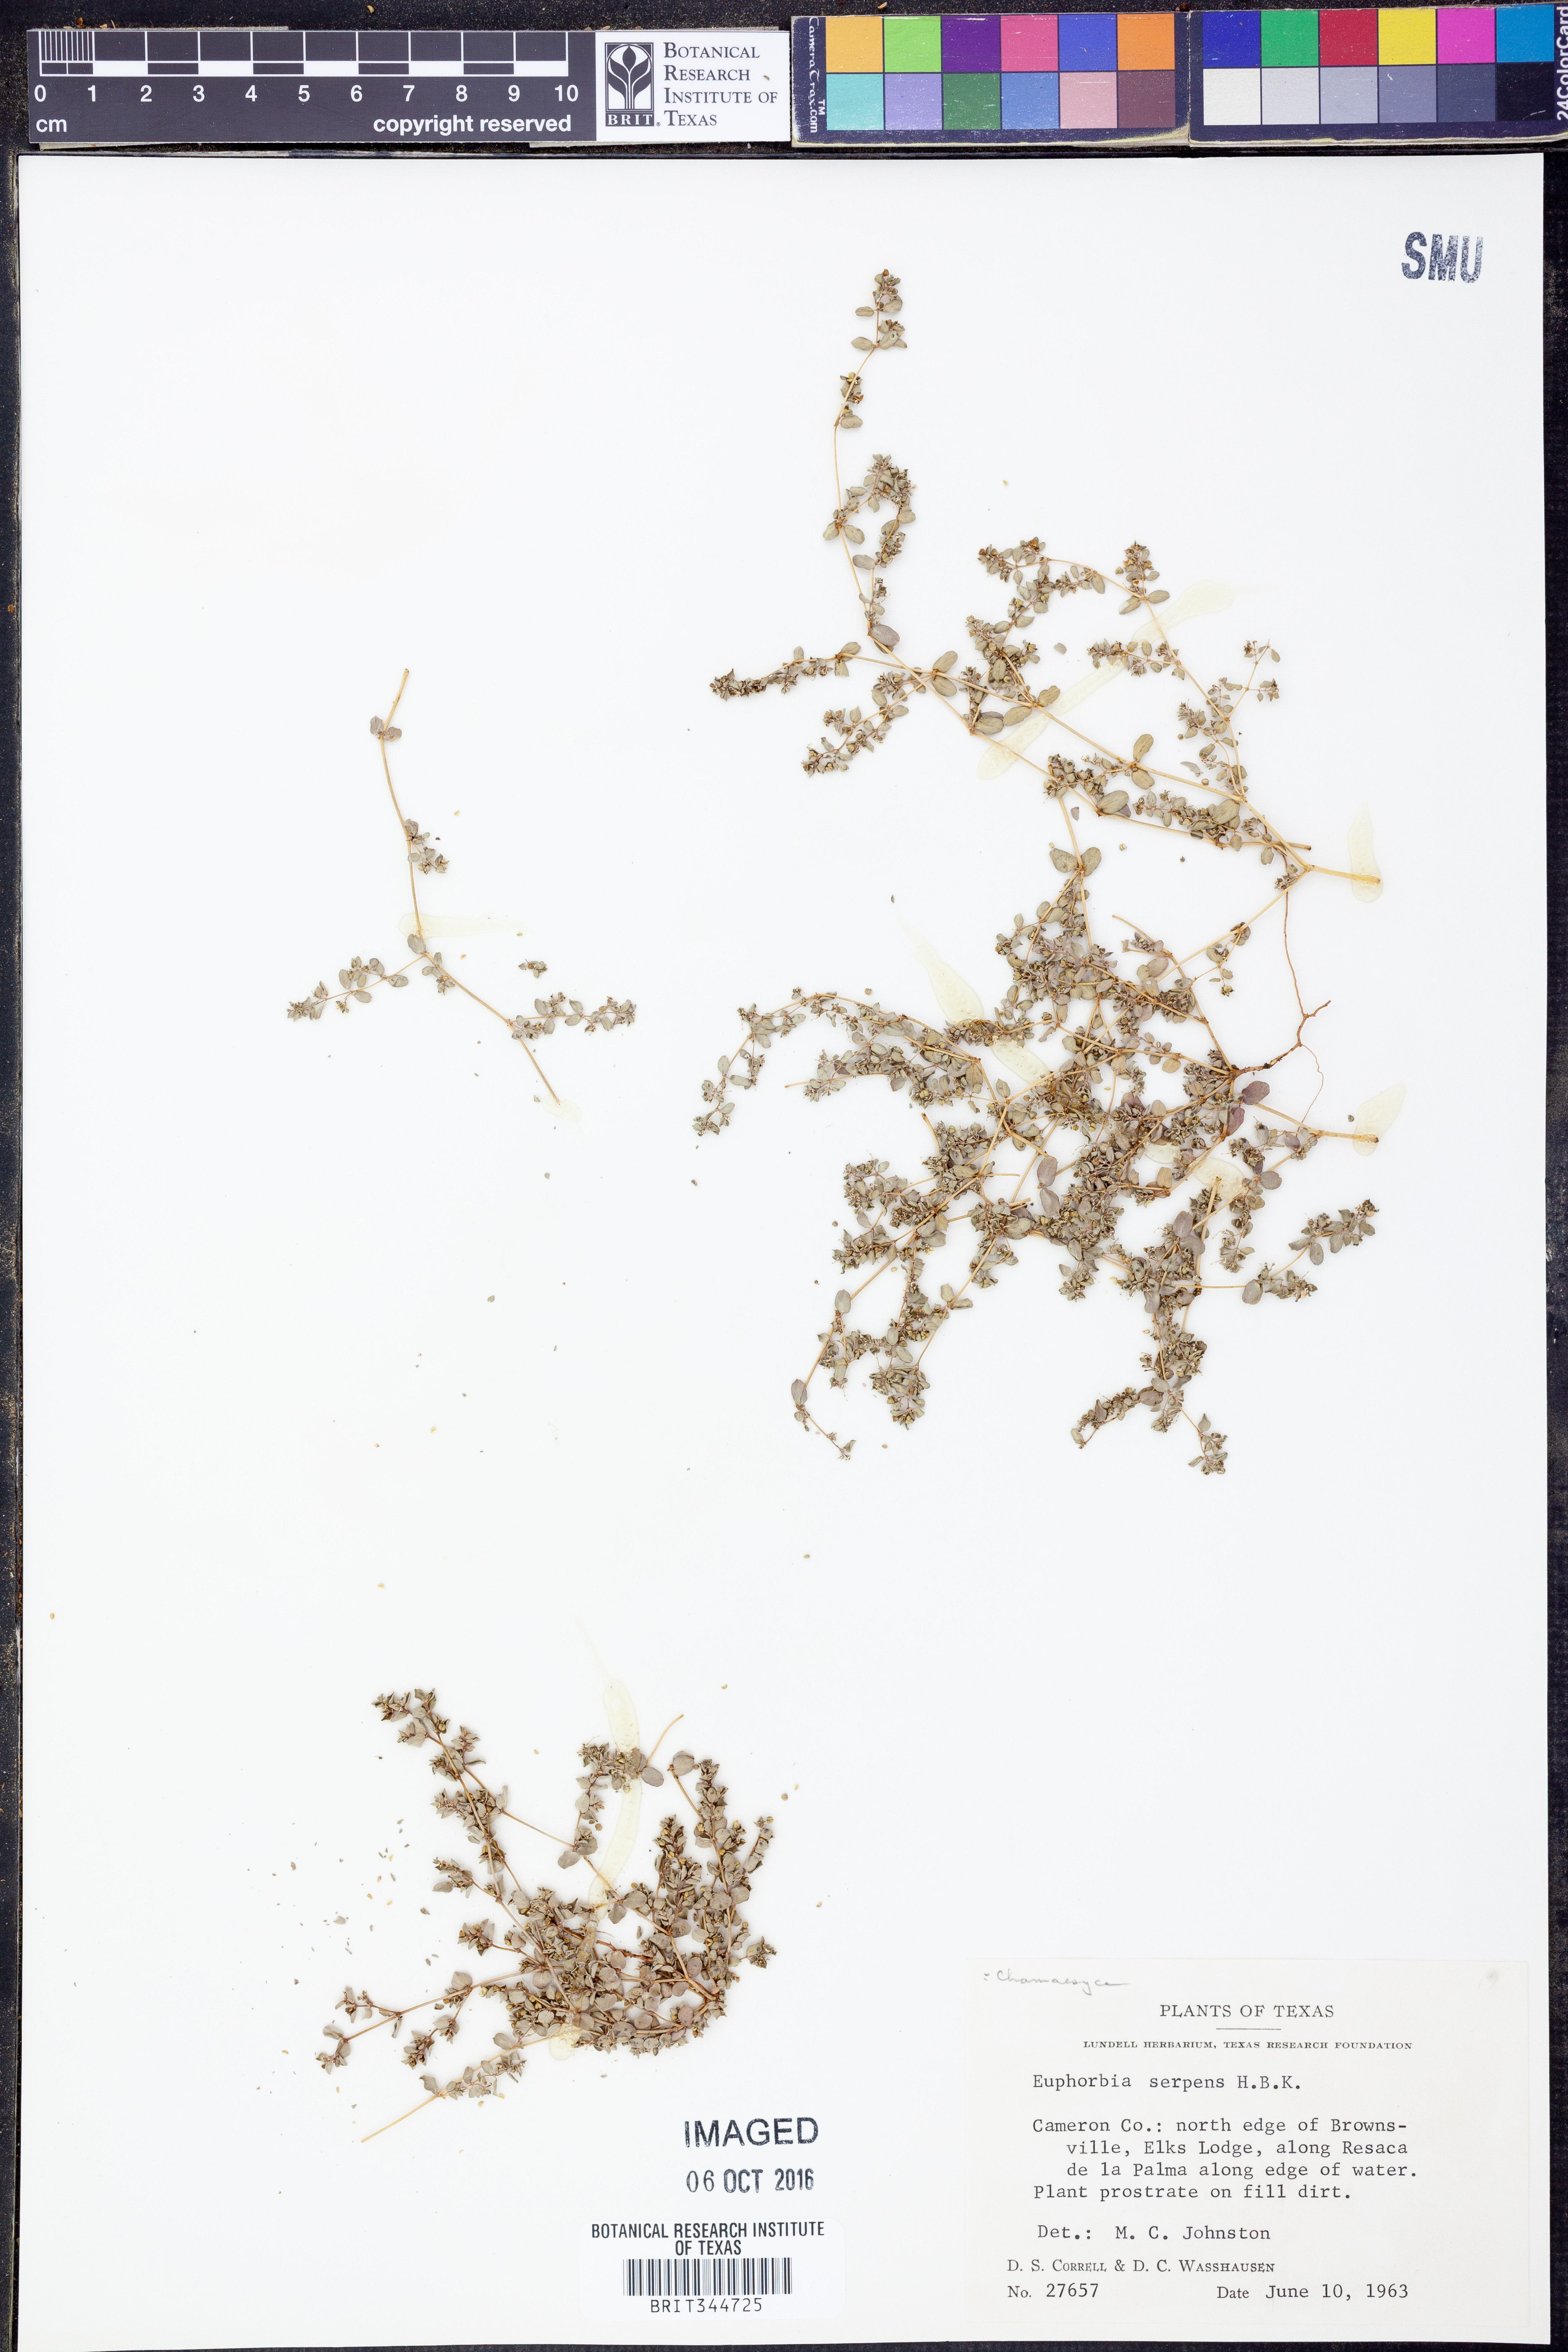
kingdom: Plantae
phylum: Tracheophyta
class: Magnoliopsida
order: Malpighiales
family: Euphorbiaceae
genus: Euphorbia
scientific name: Euphorbia serpens
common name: Matted sandmat
